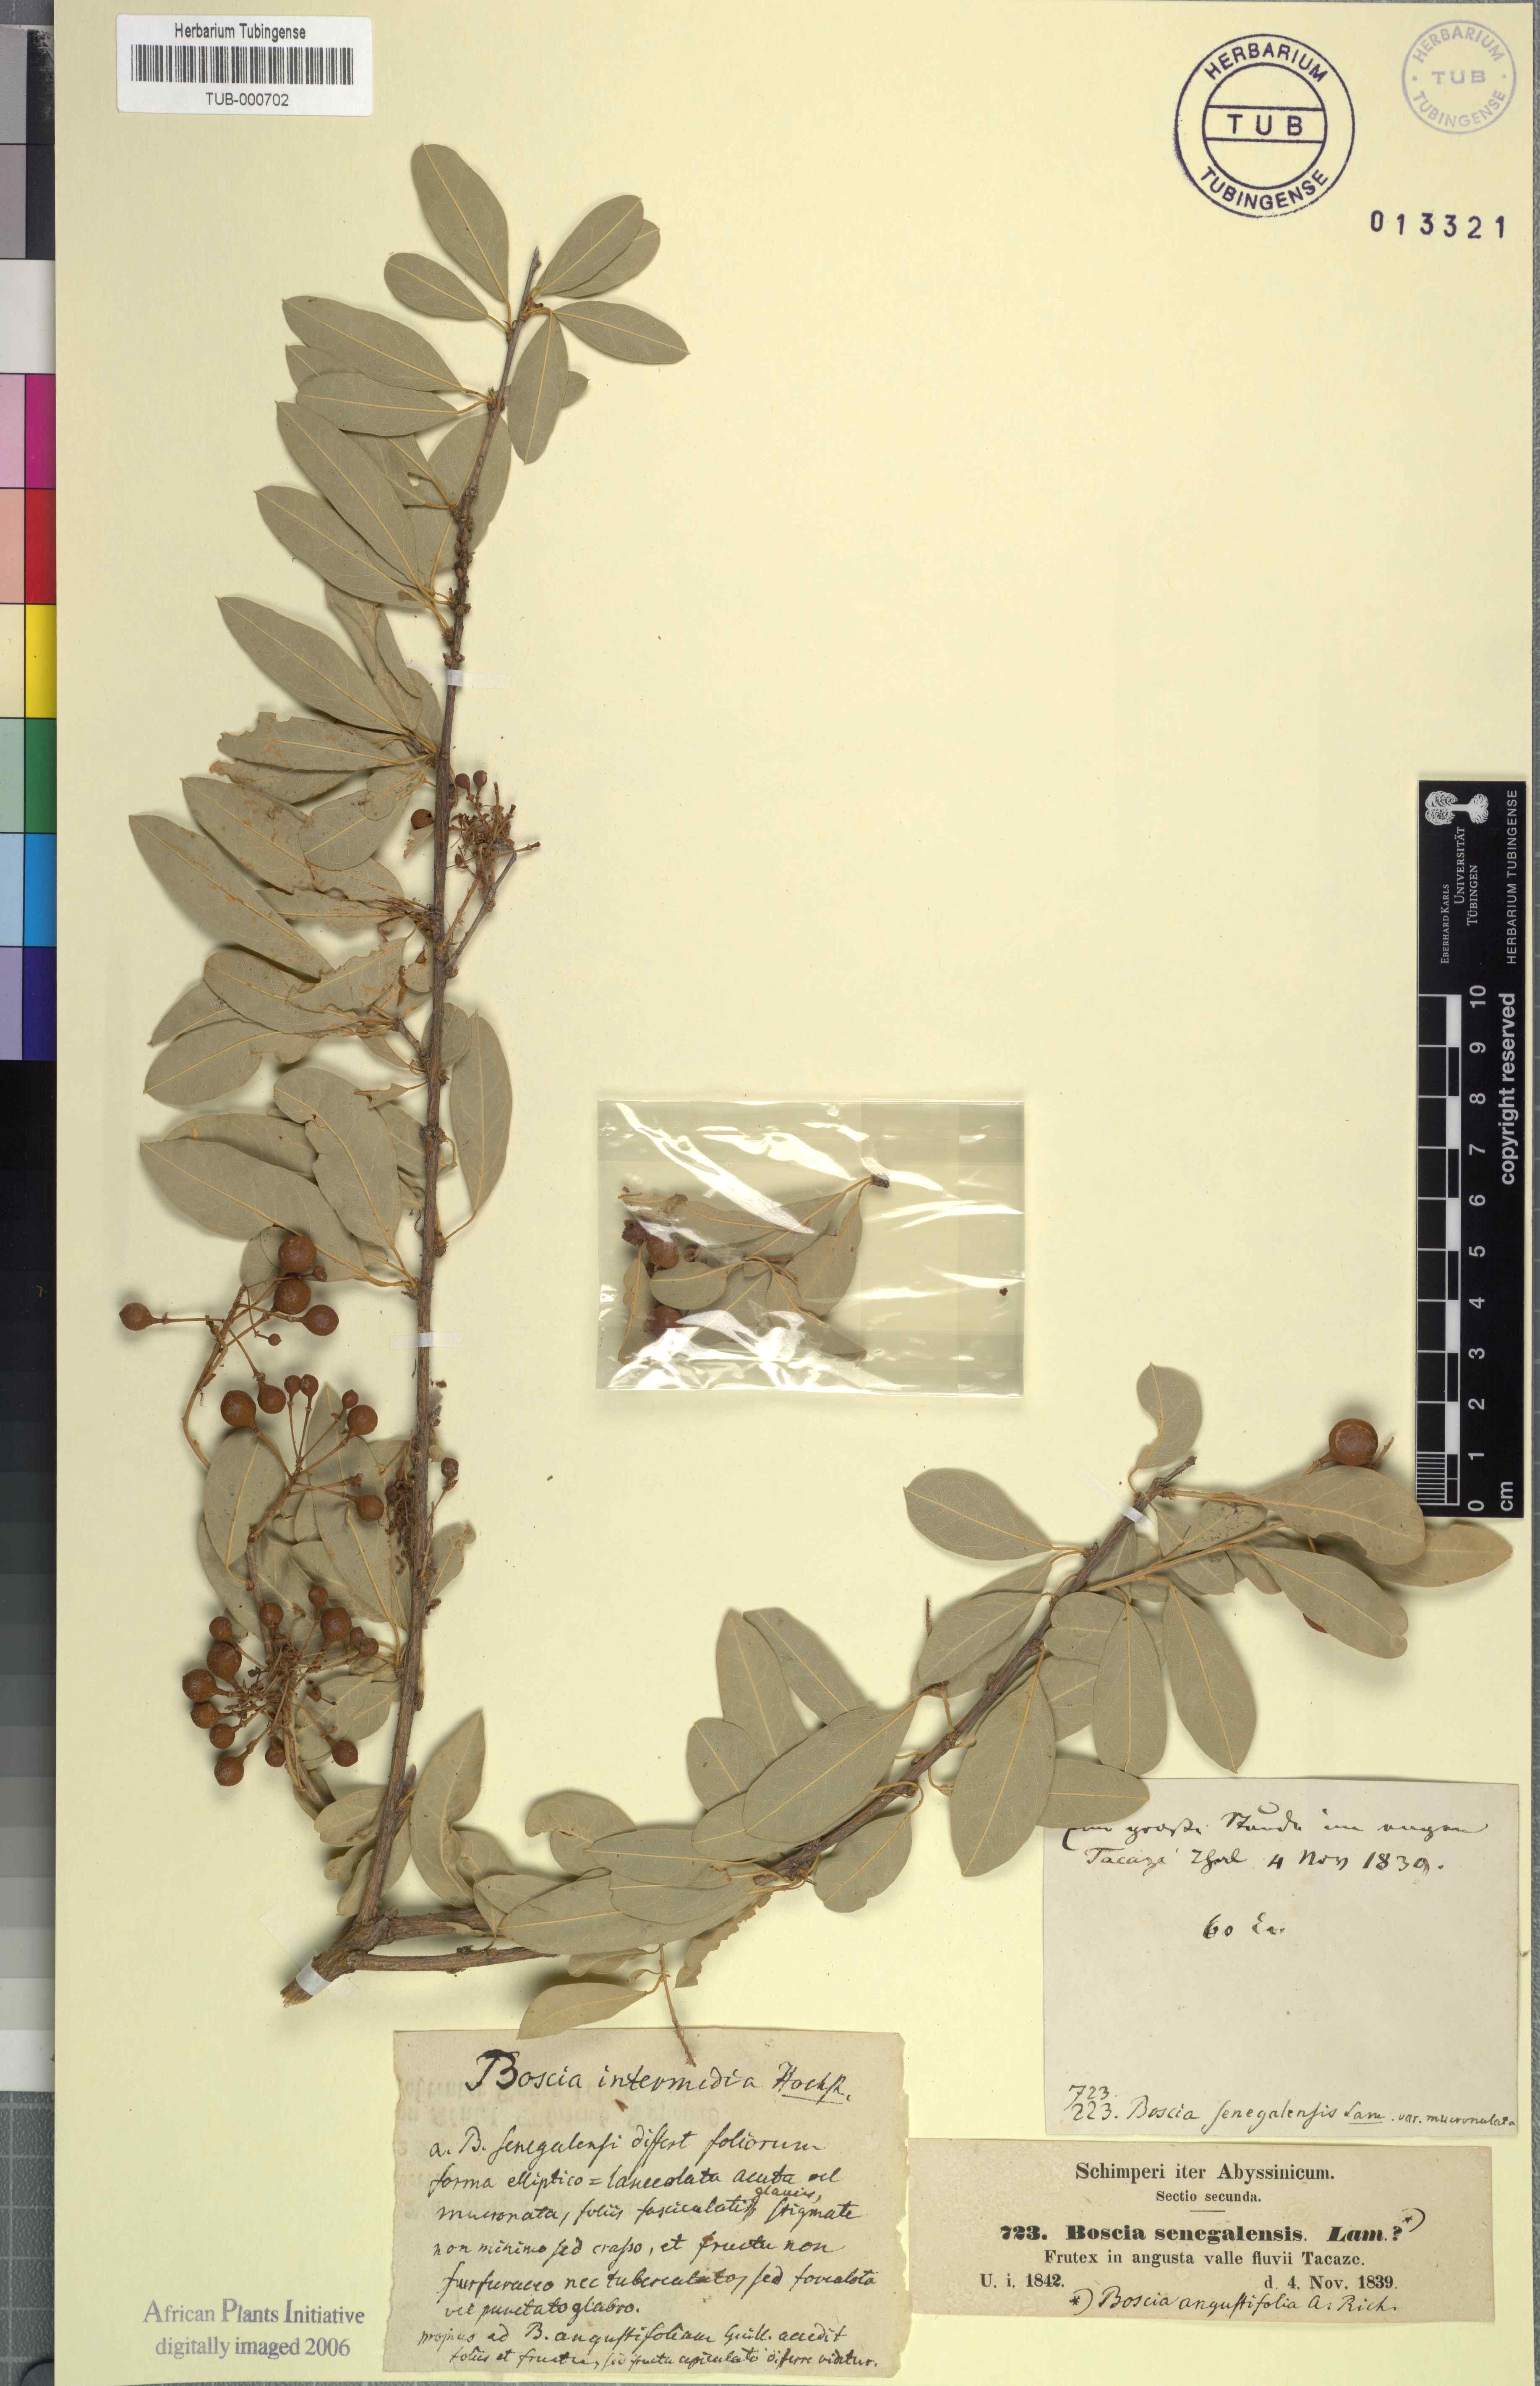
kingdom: Plantae
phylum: Tracheophyta
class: Magnoliopsida
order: Brassicales
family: Capparaceae
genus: Boscia
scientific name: Boscia angustifolia
